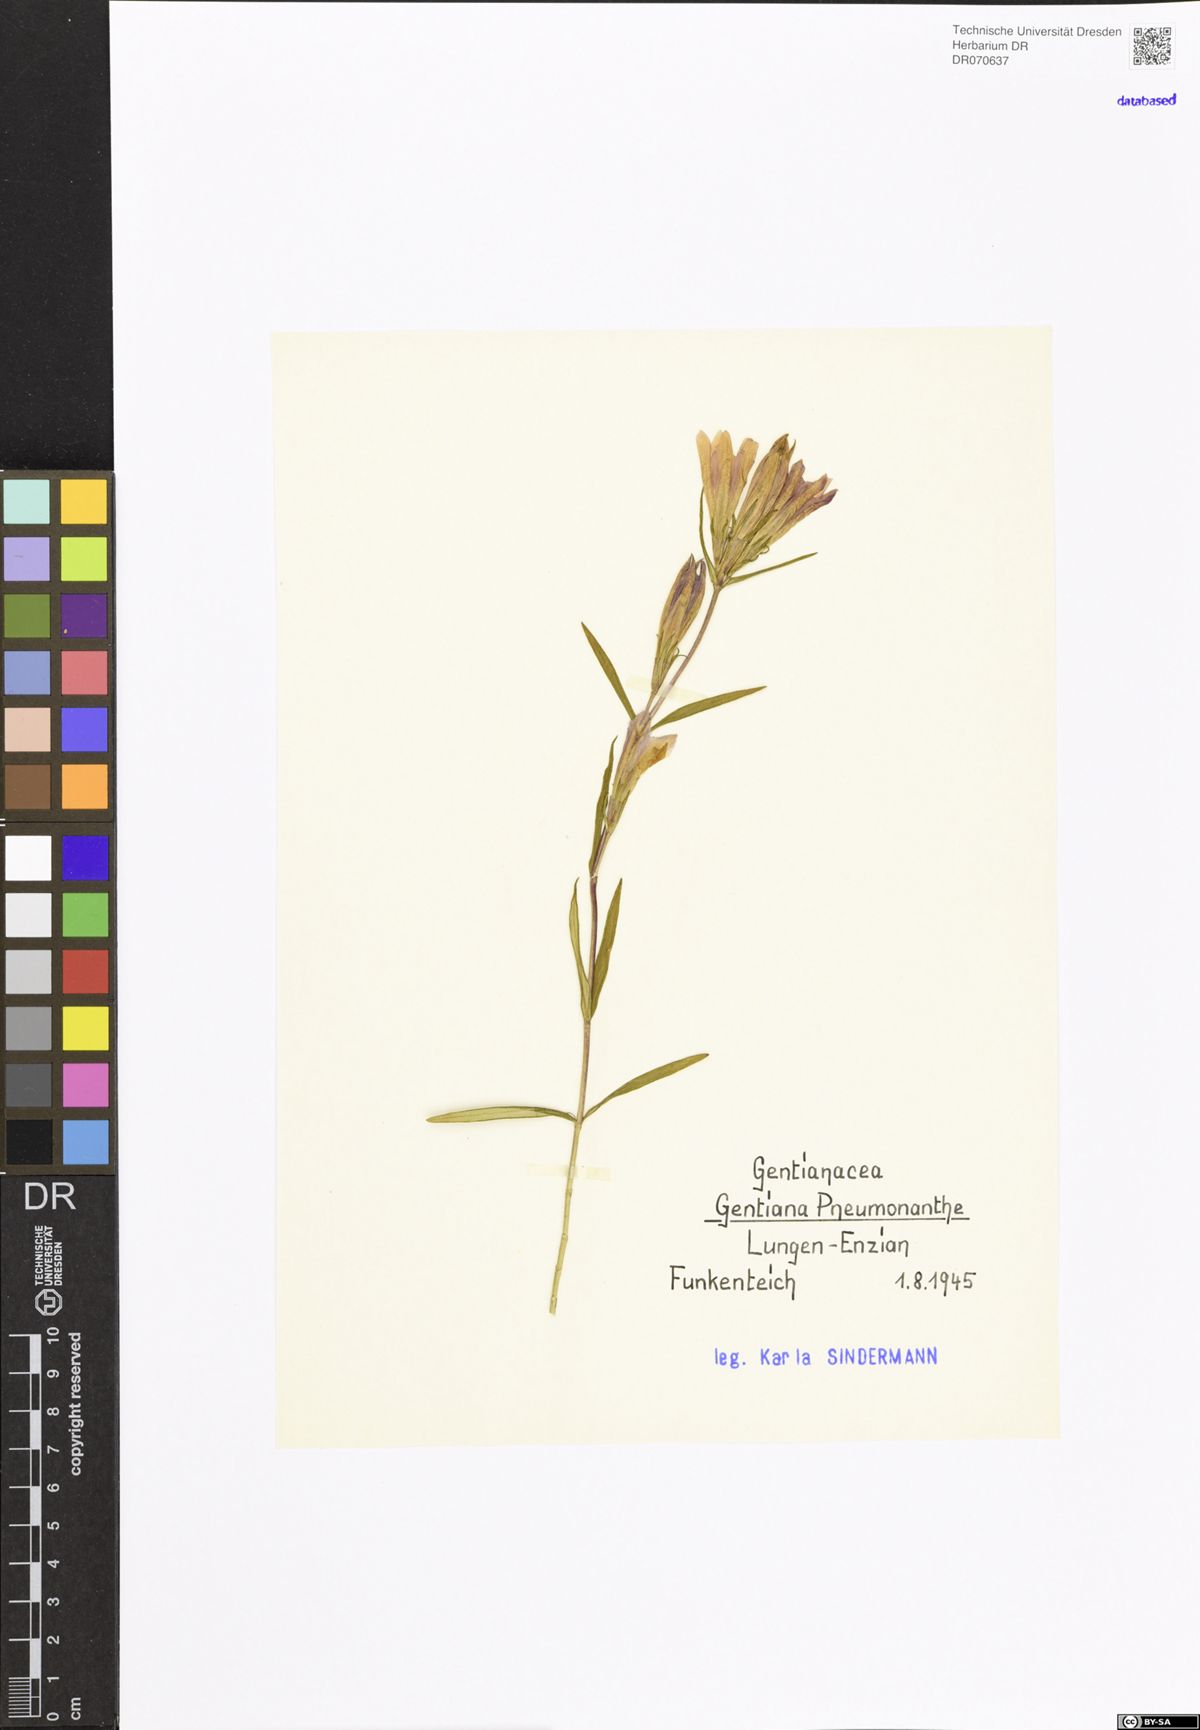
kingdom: Plantae
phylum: Tracheophyta
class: Magnoliopsida
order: Gentianales
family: Gentianaceae
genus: Gentiana
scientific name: Gentiana pneumonanthe
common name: Marsh gentian
